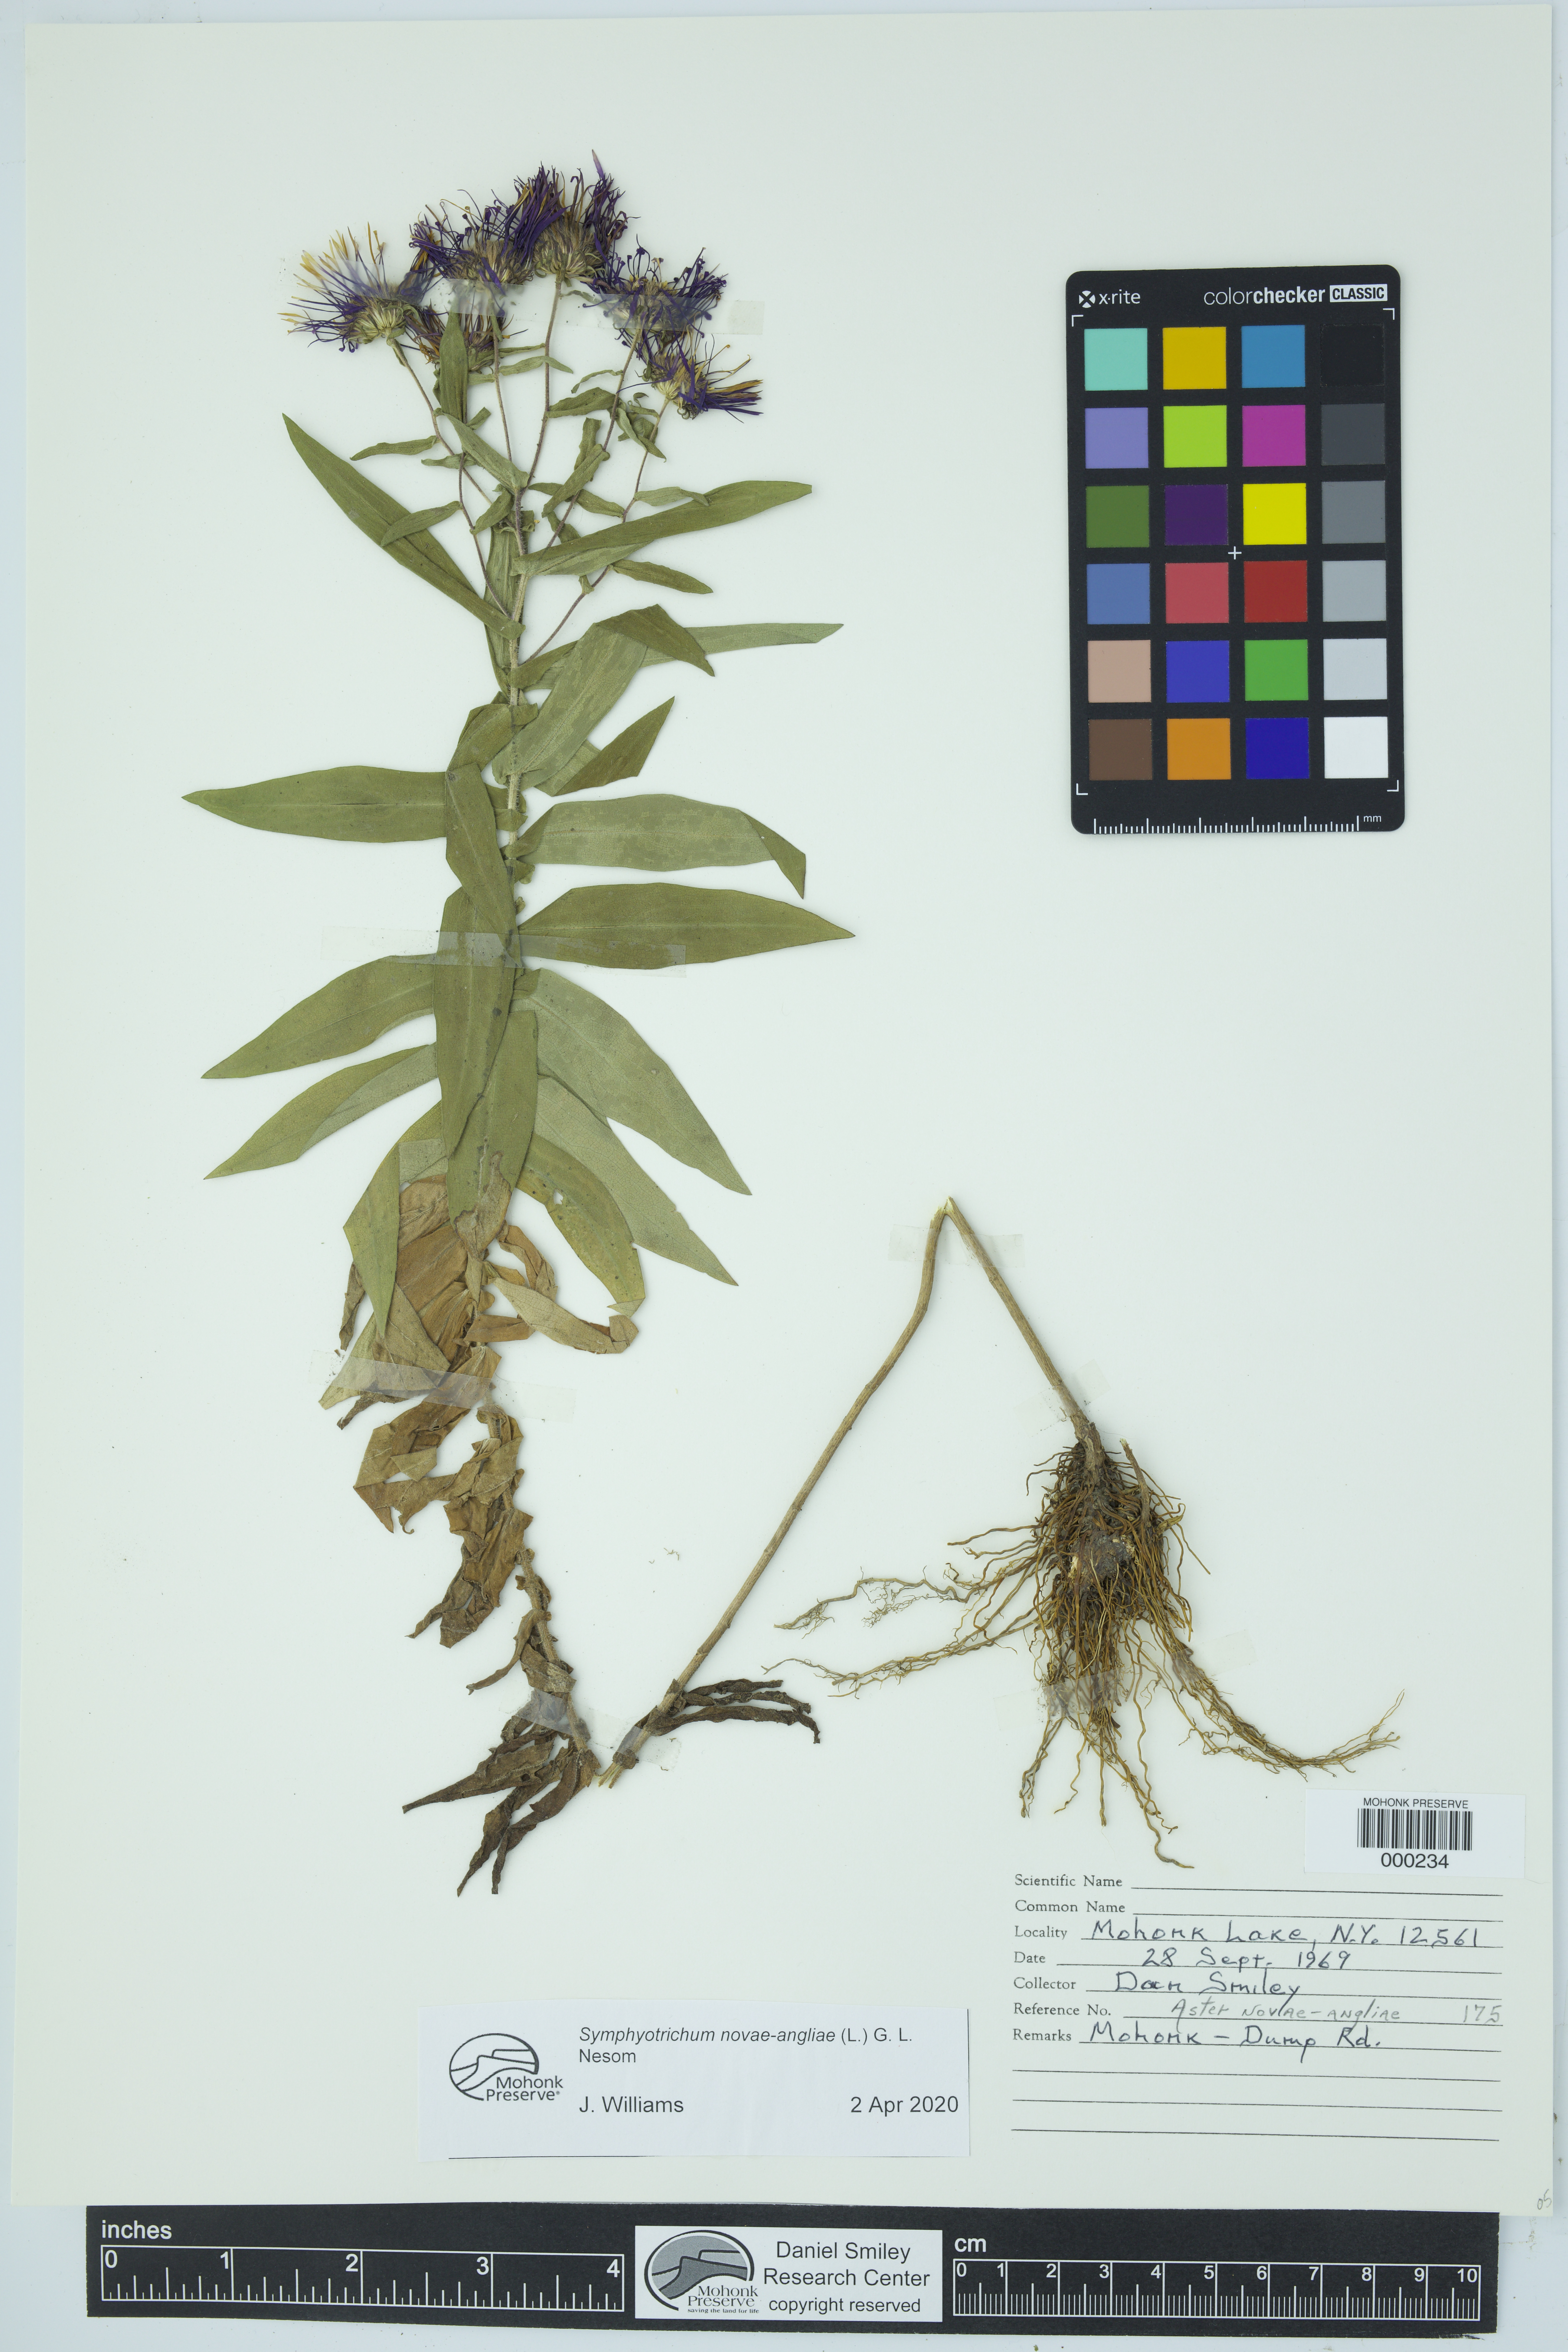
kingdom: Plantae
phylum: Tracheophyta
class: Magnoliopsida
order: Asterales
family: Asteraceae
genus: Aster
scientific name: Aster
